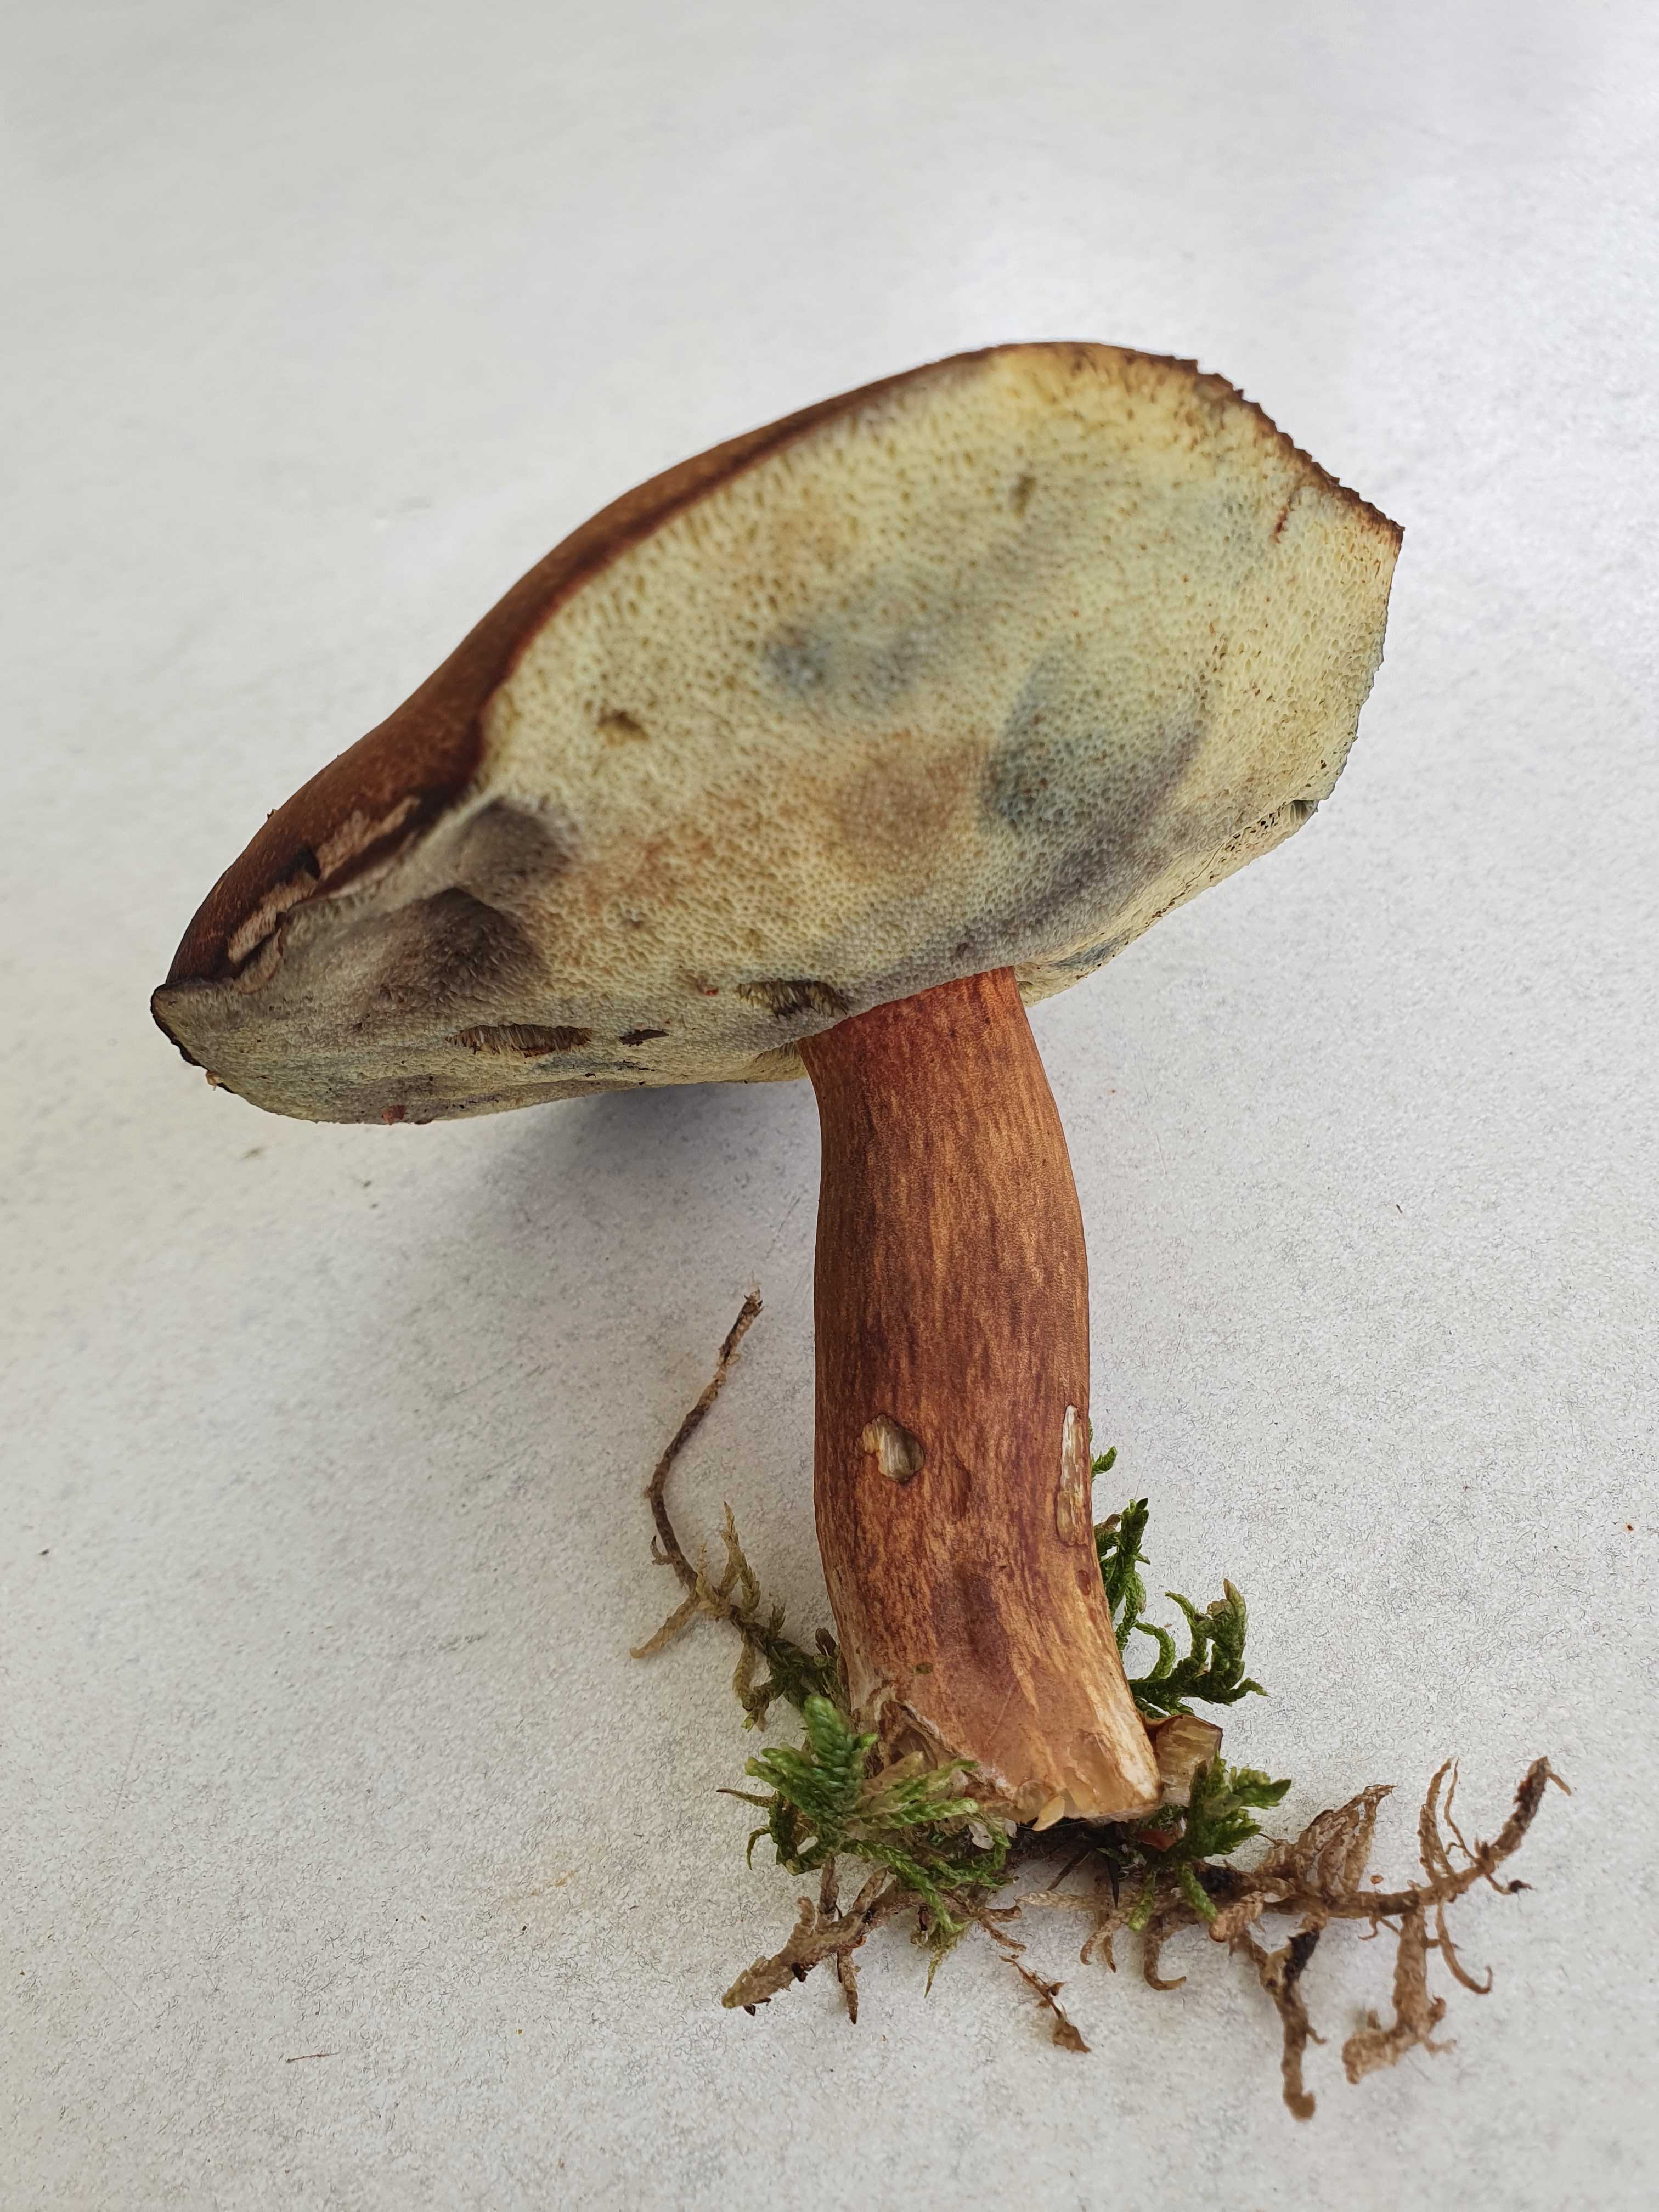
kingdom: Fungi
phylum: Basidiomycota
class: Agaricomycetes
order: Boletales
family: Boletaceae
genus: Imleria
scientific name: Imleria badia
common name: brunstokket rørhat
